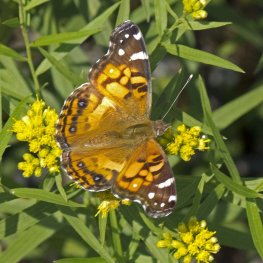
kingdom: Animalia
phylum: Arthropoda
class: Insecta
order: Lepidoptera
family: Nymphalidae
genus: Vanessa
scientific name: Vanessa virginiensis
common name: American Lady
